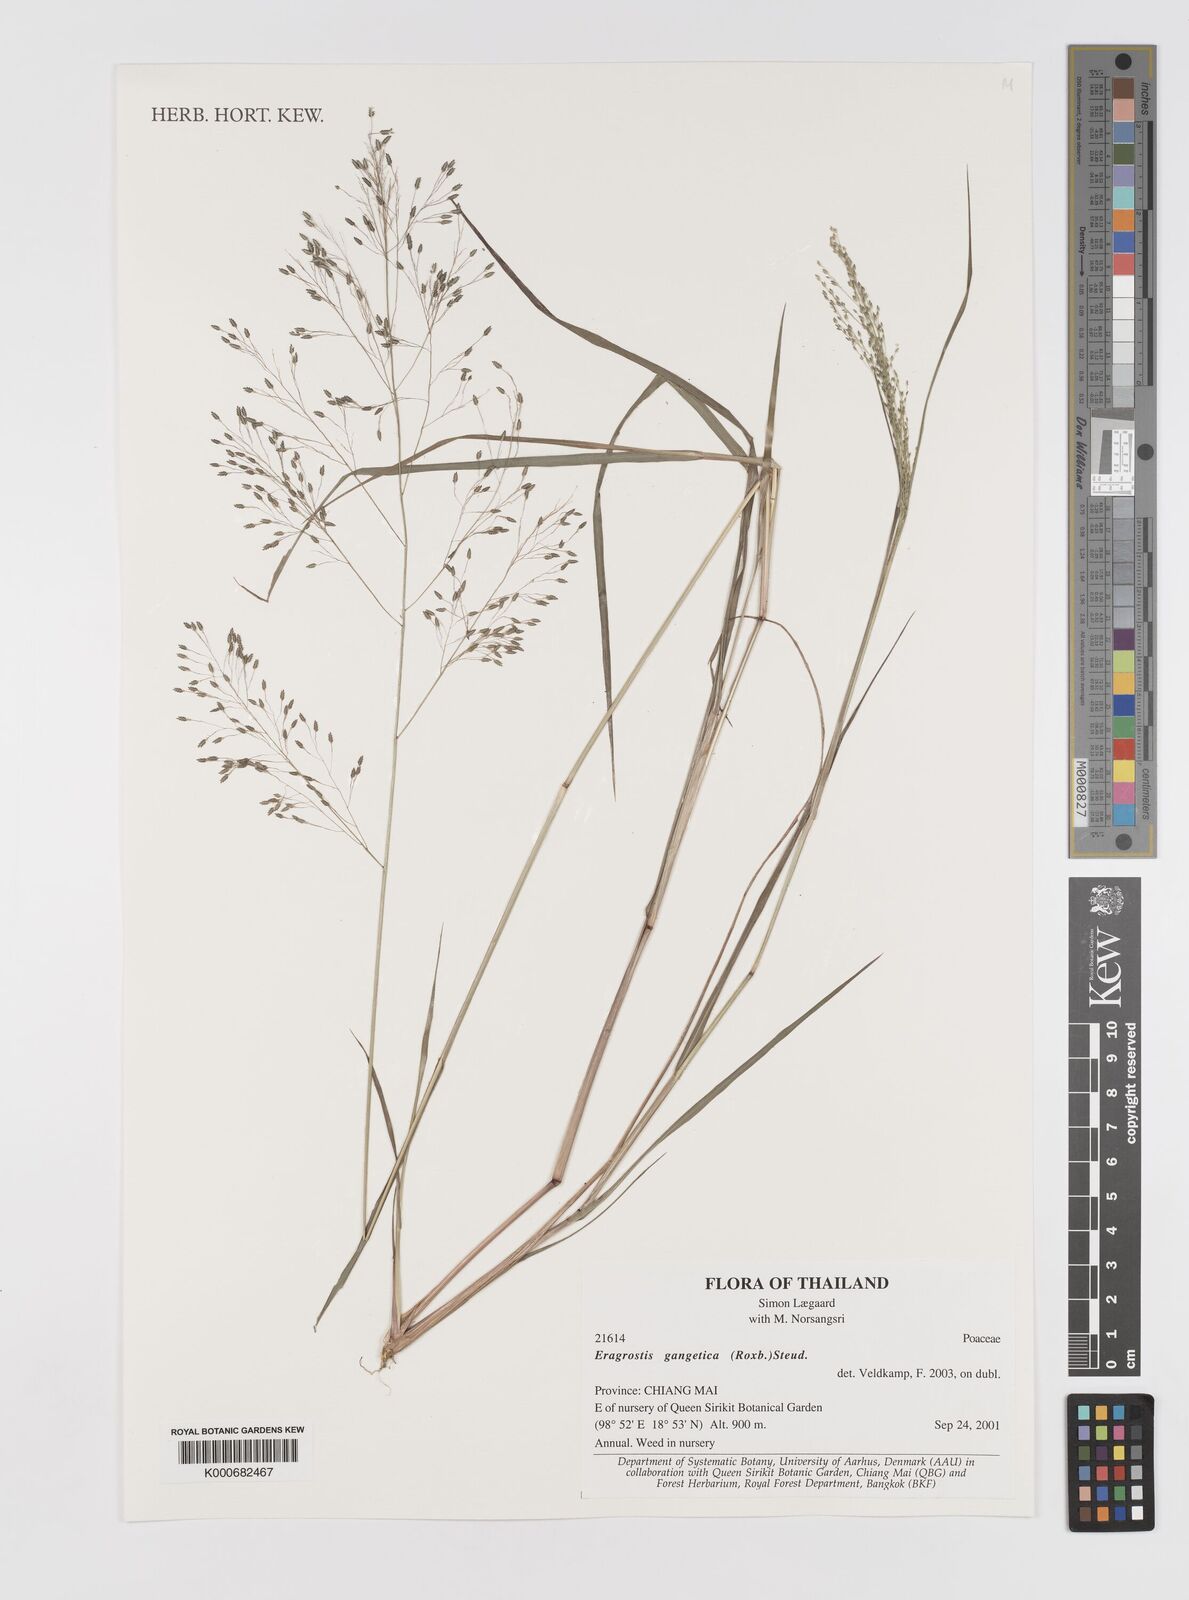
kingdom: Plantae
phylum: Tracheophyta
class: Liliopsida
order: Poales
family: Poaceae
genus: Eragrostis
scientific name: Eragrostis gangetica
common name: Slimflower lovegrass
